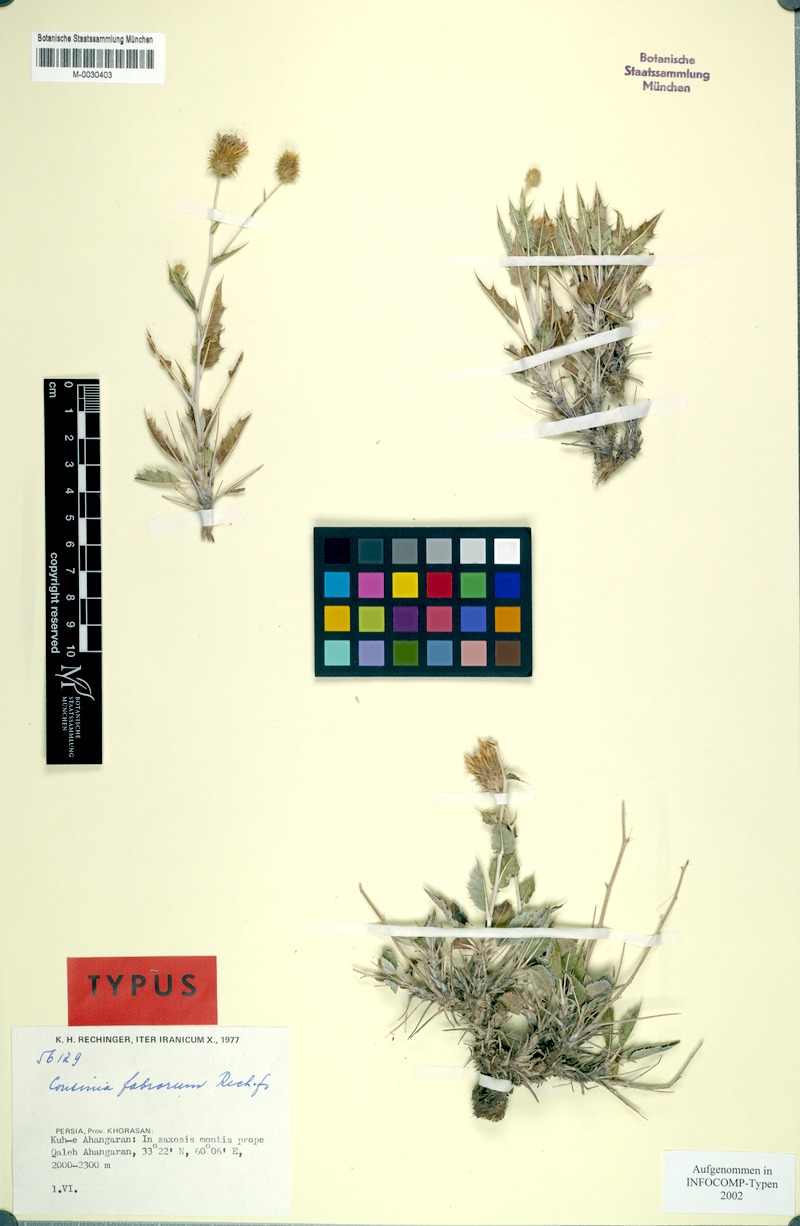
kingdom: Plantae
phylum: Tracheophyta
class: Magnoliopsida
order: Asterales
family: Asteraceae
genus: Cousinia
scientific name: Cousinia fabrorum
